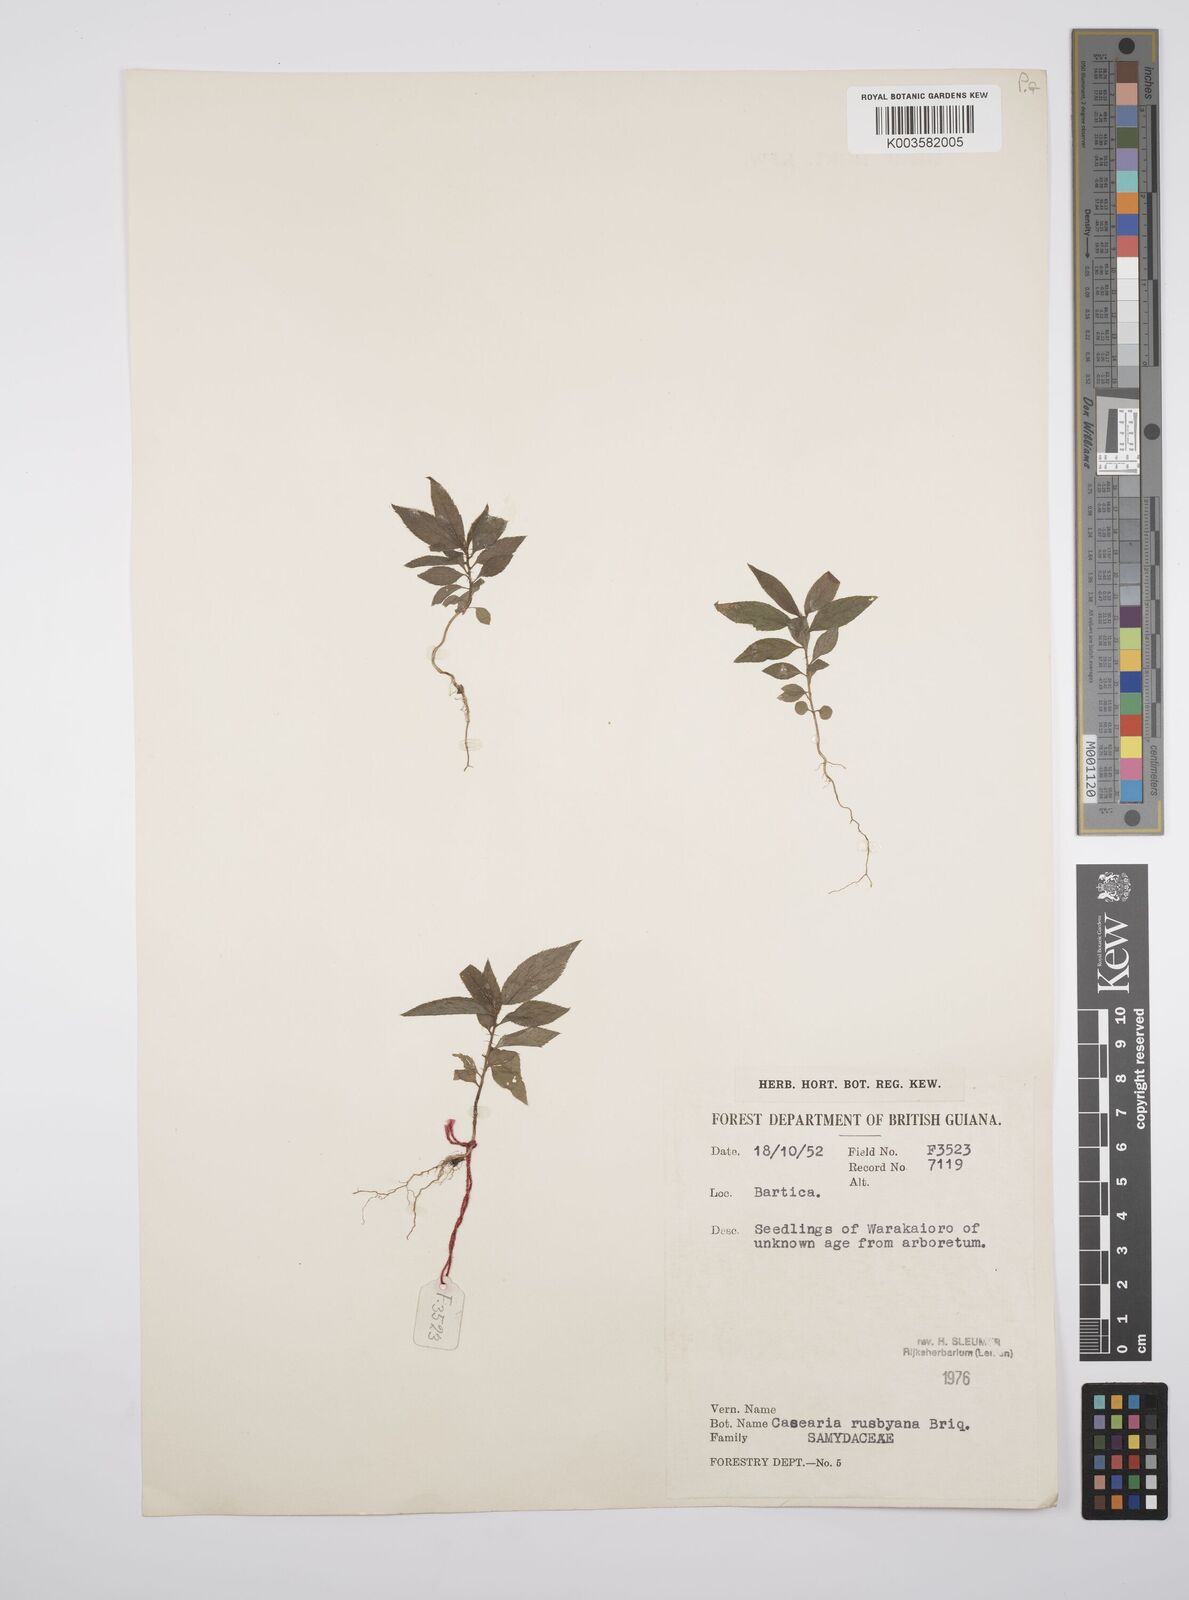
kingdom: Plantae
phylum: Tracheophyta
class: Magnoliopsida
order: Malpighiales
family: Salicaceae
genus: Casearia
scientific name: Casearia rusbyana
